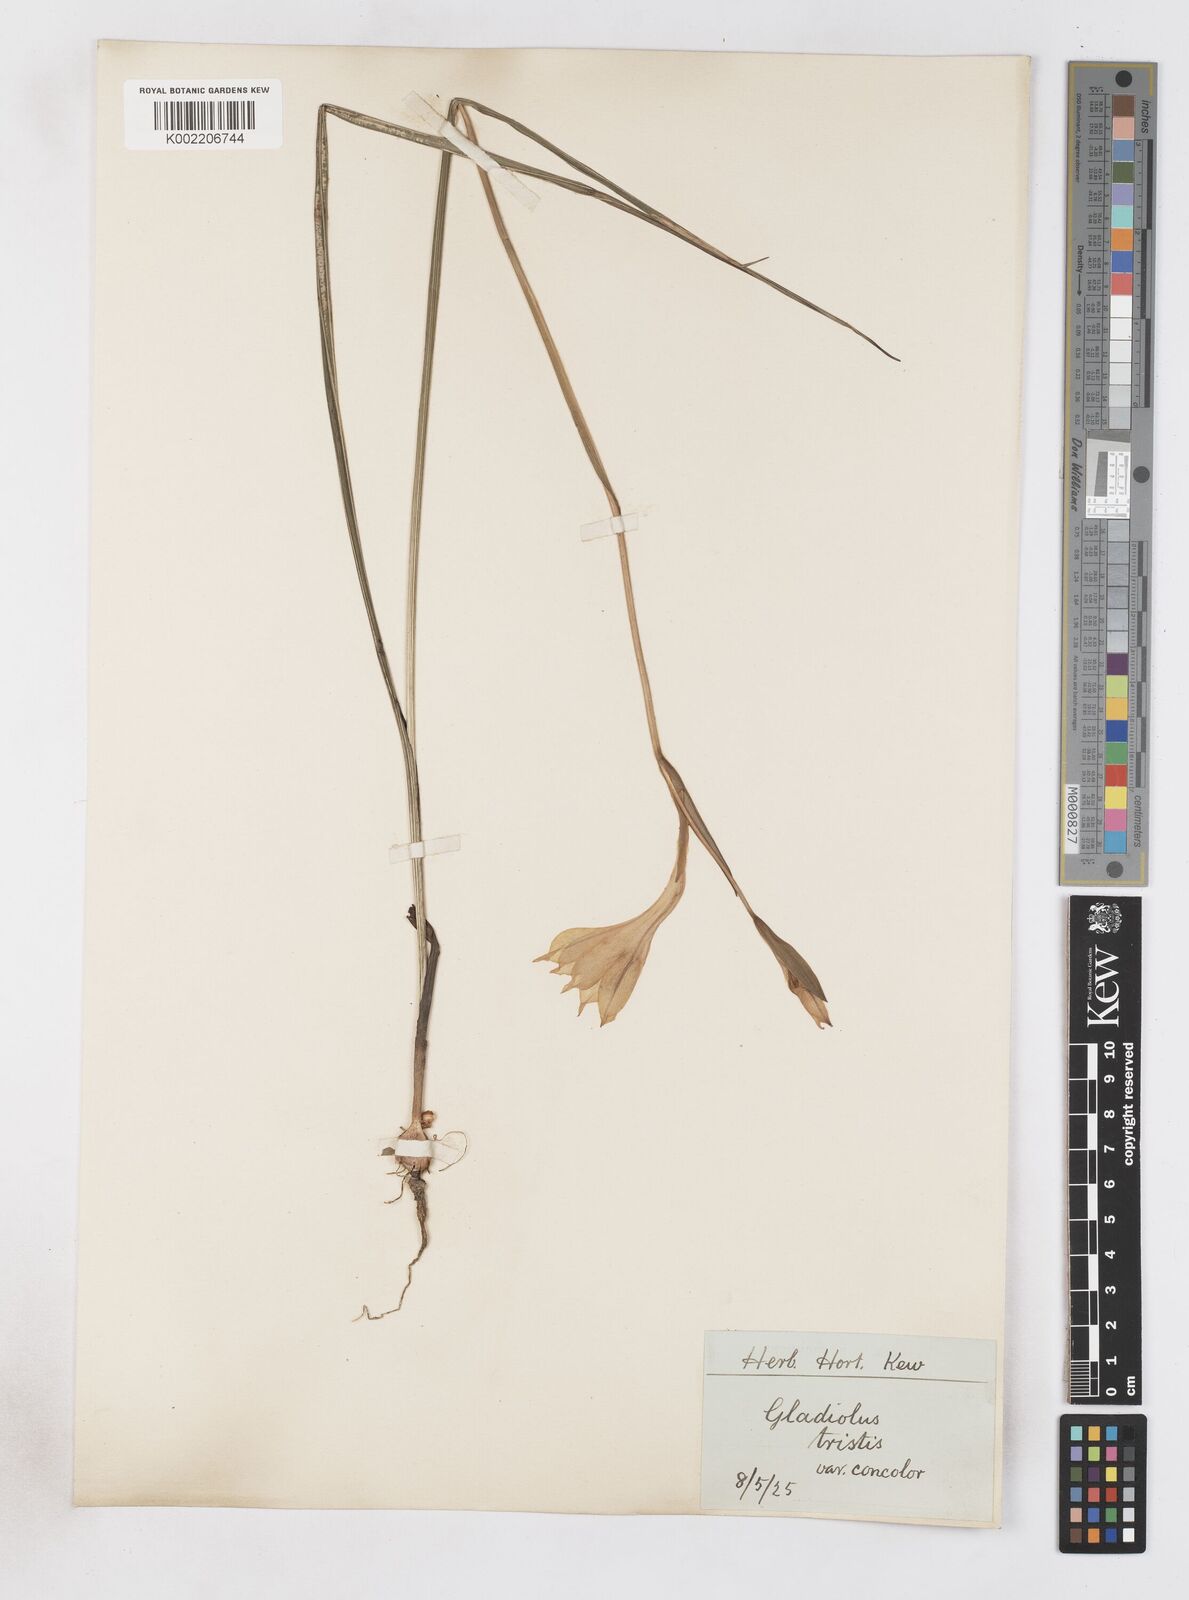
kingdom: Plantae
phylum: Tracheophyta
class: Liliopsida
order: Asparagales
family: Iridaceae
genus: Gladiolus
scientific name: Gladiolus tristis
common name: Ever-flowering gladiolus
